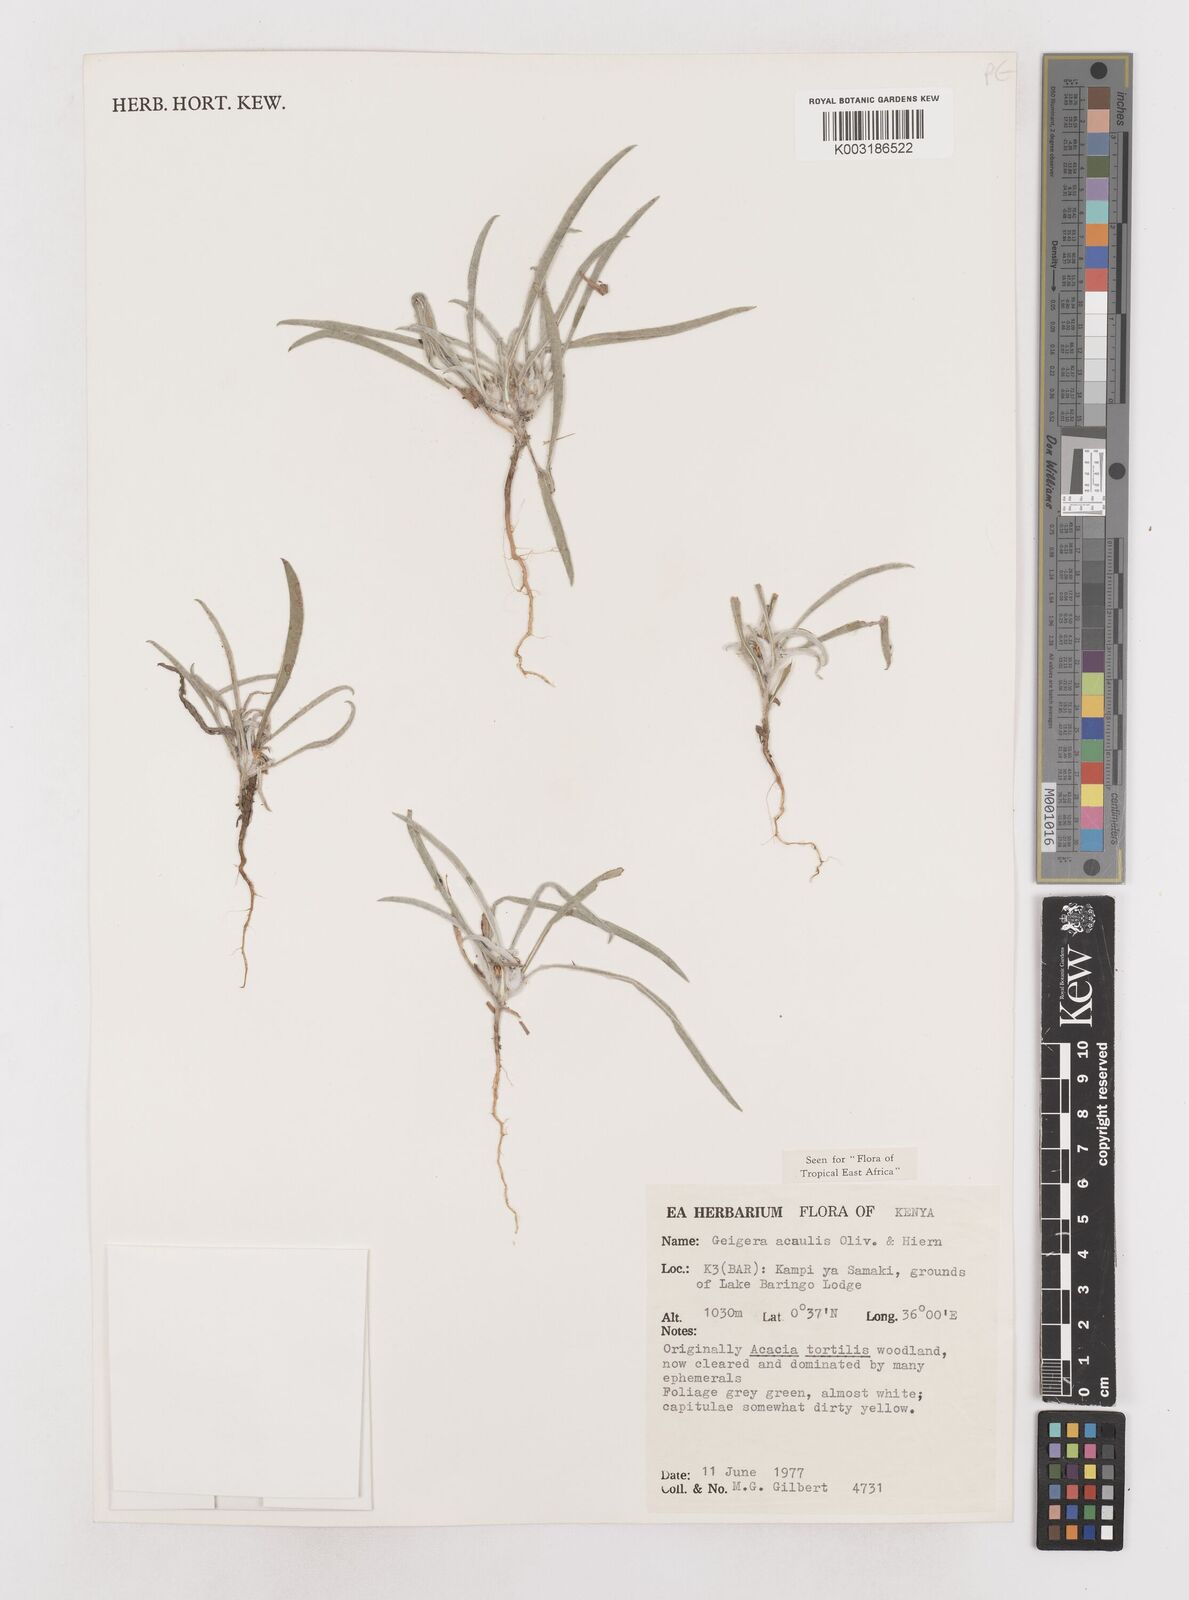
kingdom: Plantae
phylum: Tracheophyta
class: Magnoliopsida
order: Asterales
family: Asteraceae
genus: Geigeria
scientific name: Geigeria acaulis
